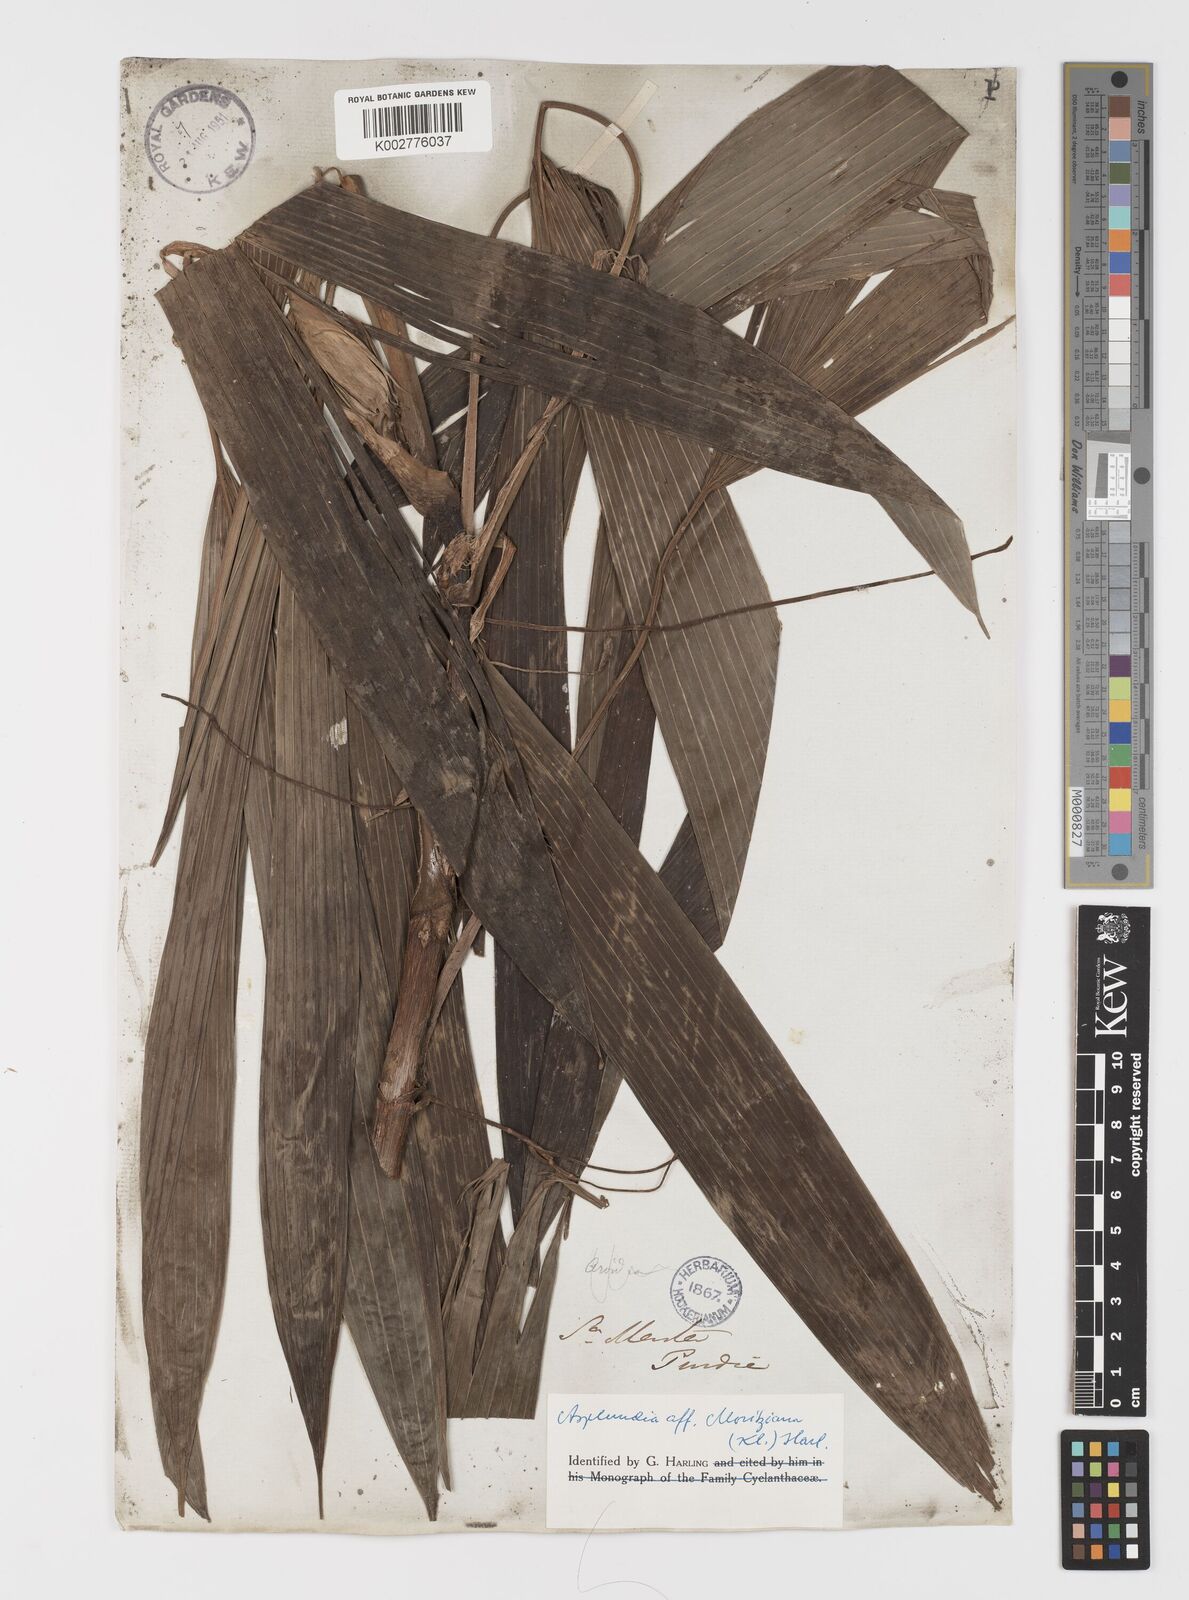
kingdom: Plantae
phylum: Tracheophyta
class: Liliopsida
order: Pandanales
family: Cyclanthaceae
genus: Asplundia
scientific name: Asplundia moritziana
